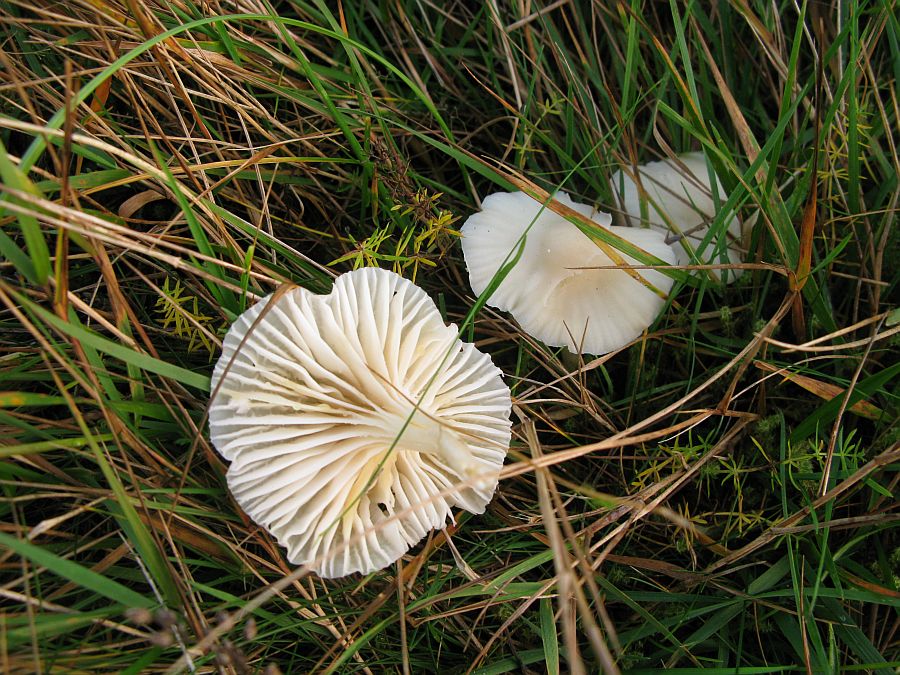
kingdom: Fungi
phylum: Basidiomycota
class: Agaricomycetes
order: Agaricales
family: Hygrophoraceae
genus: Cuphophyllus
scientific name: Cuphophyllus virgineus
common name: snehvid vokshat
